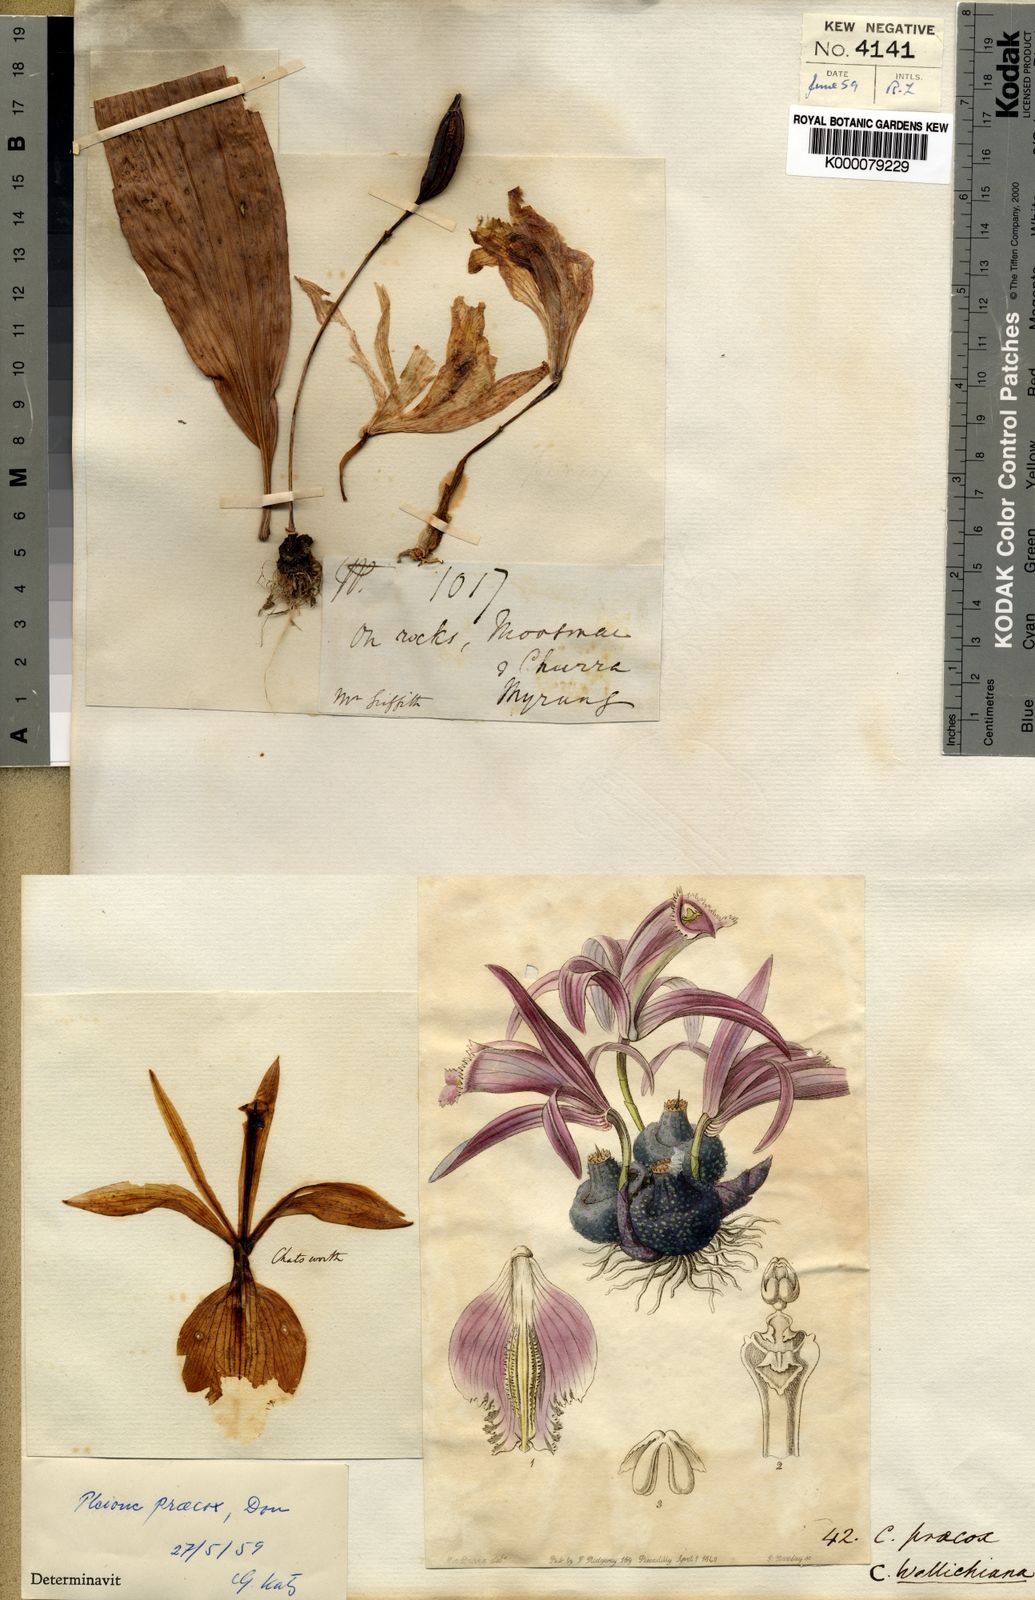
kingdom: Plantae
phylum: Tracheophyta
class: Liliopsida
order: Asparagales
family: Orchidaceae
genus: Pleione
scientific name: Pleione praecox
